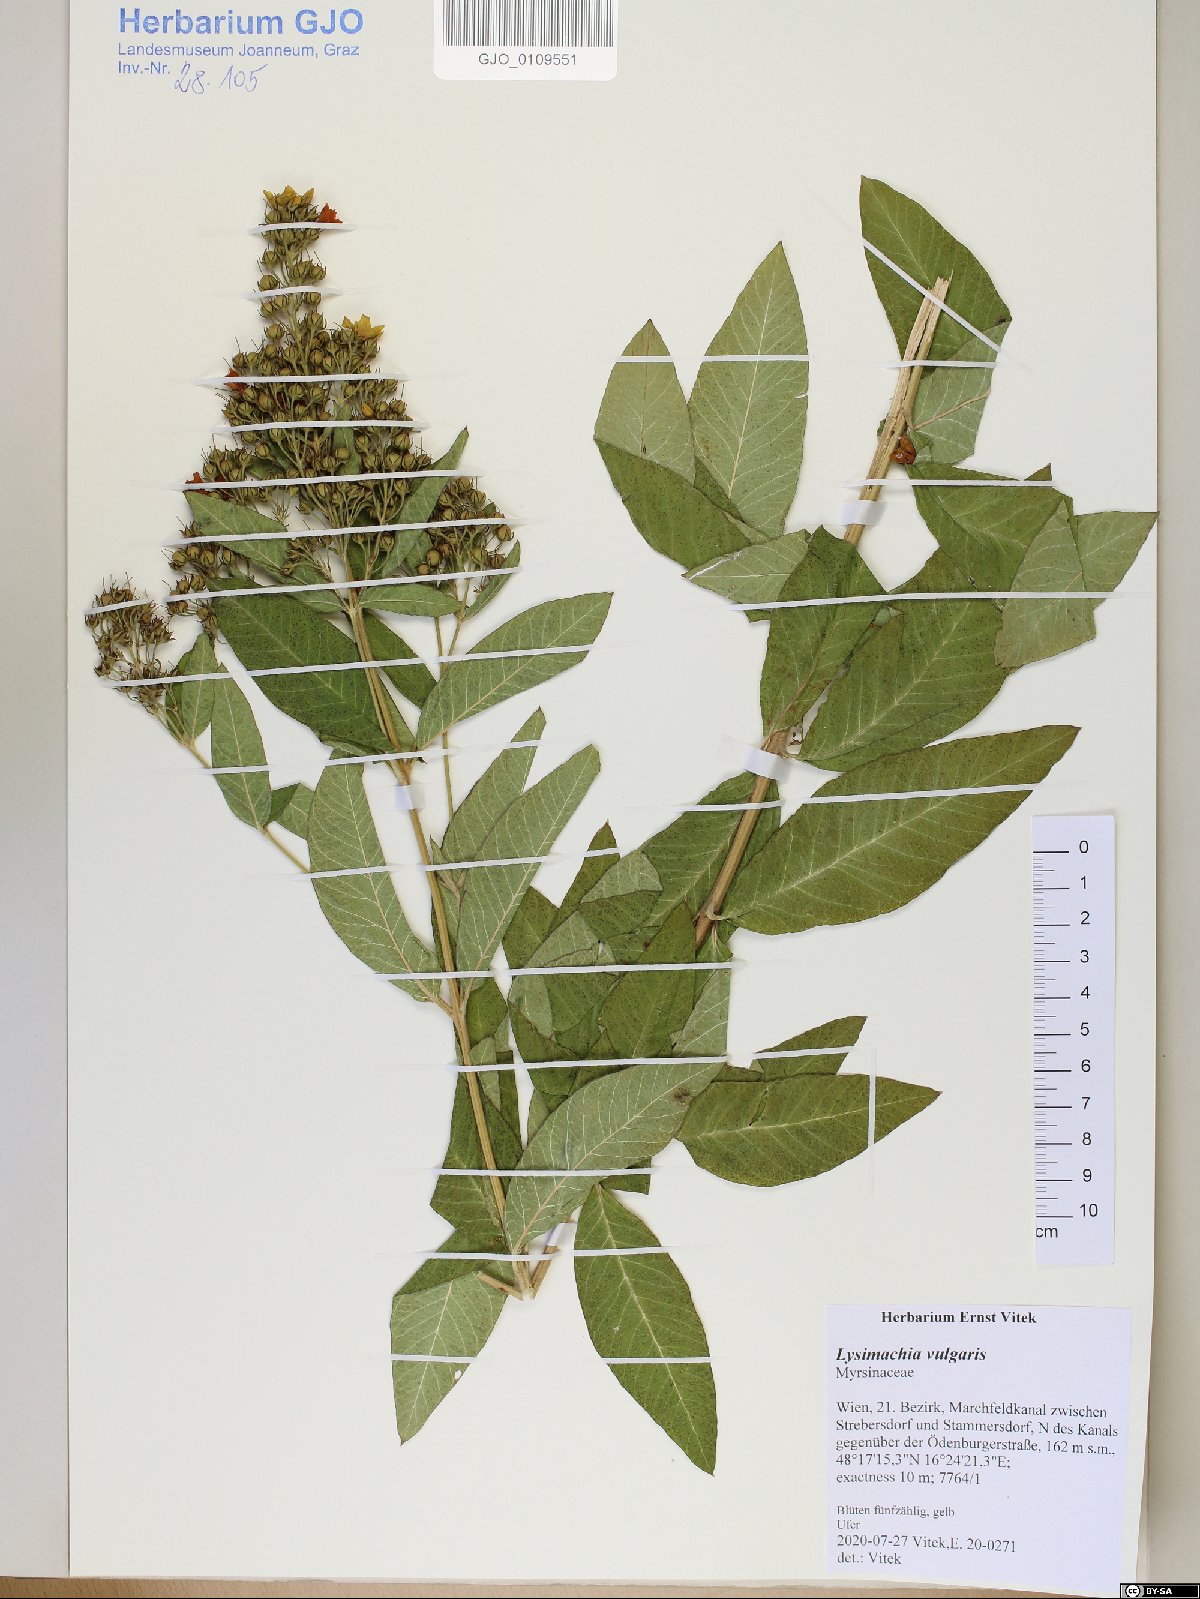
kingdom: Plantae
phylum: Tracheophyta
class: Magnoliopsida
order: Ericales
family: Primulaceae
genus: Lysimachia
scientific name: Lysimachia vulgaris
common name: Yellow loosestrife
